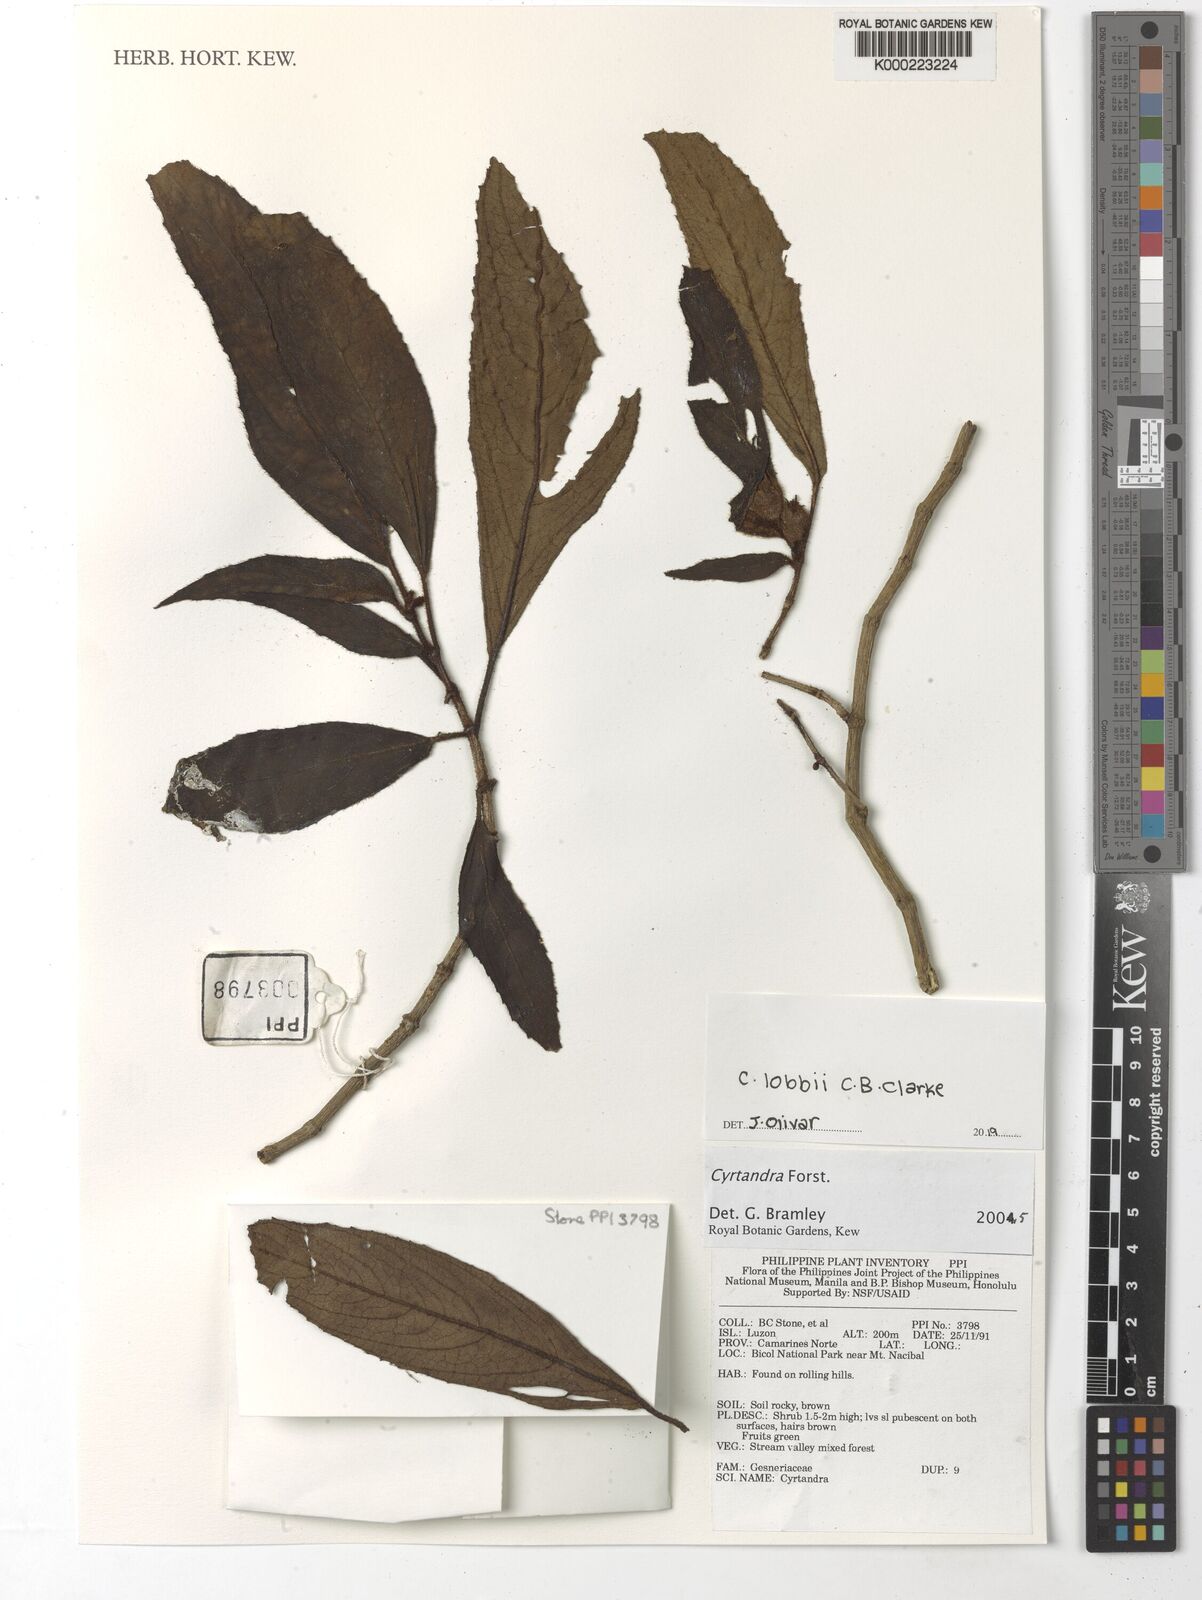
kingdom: Plantae
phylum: Tracheophyta
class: Magnoliopsida
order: Lamiales
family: Gesneriaceae
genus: Cyrtandra
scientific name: Cyrtandra
